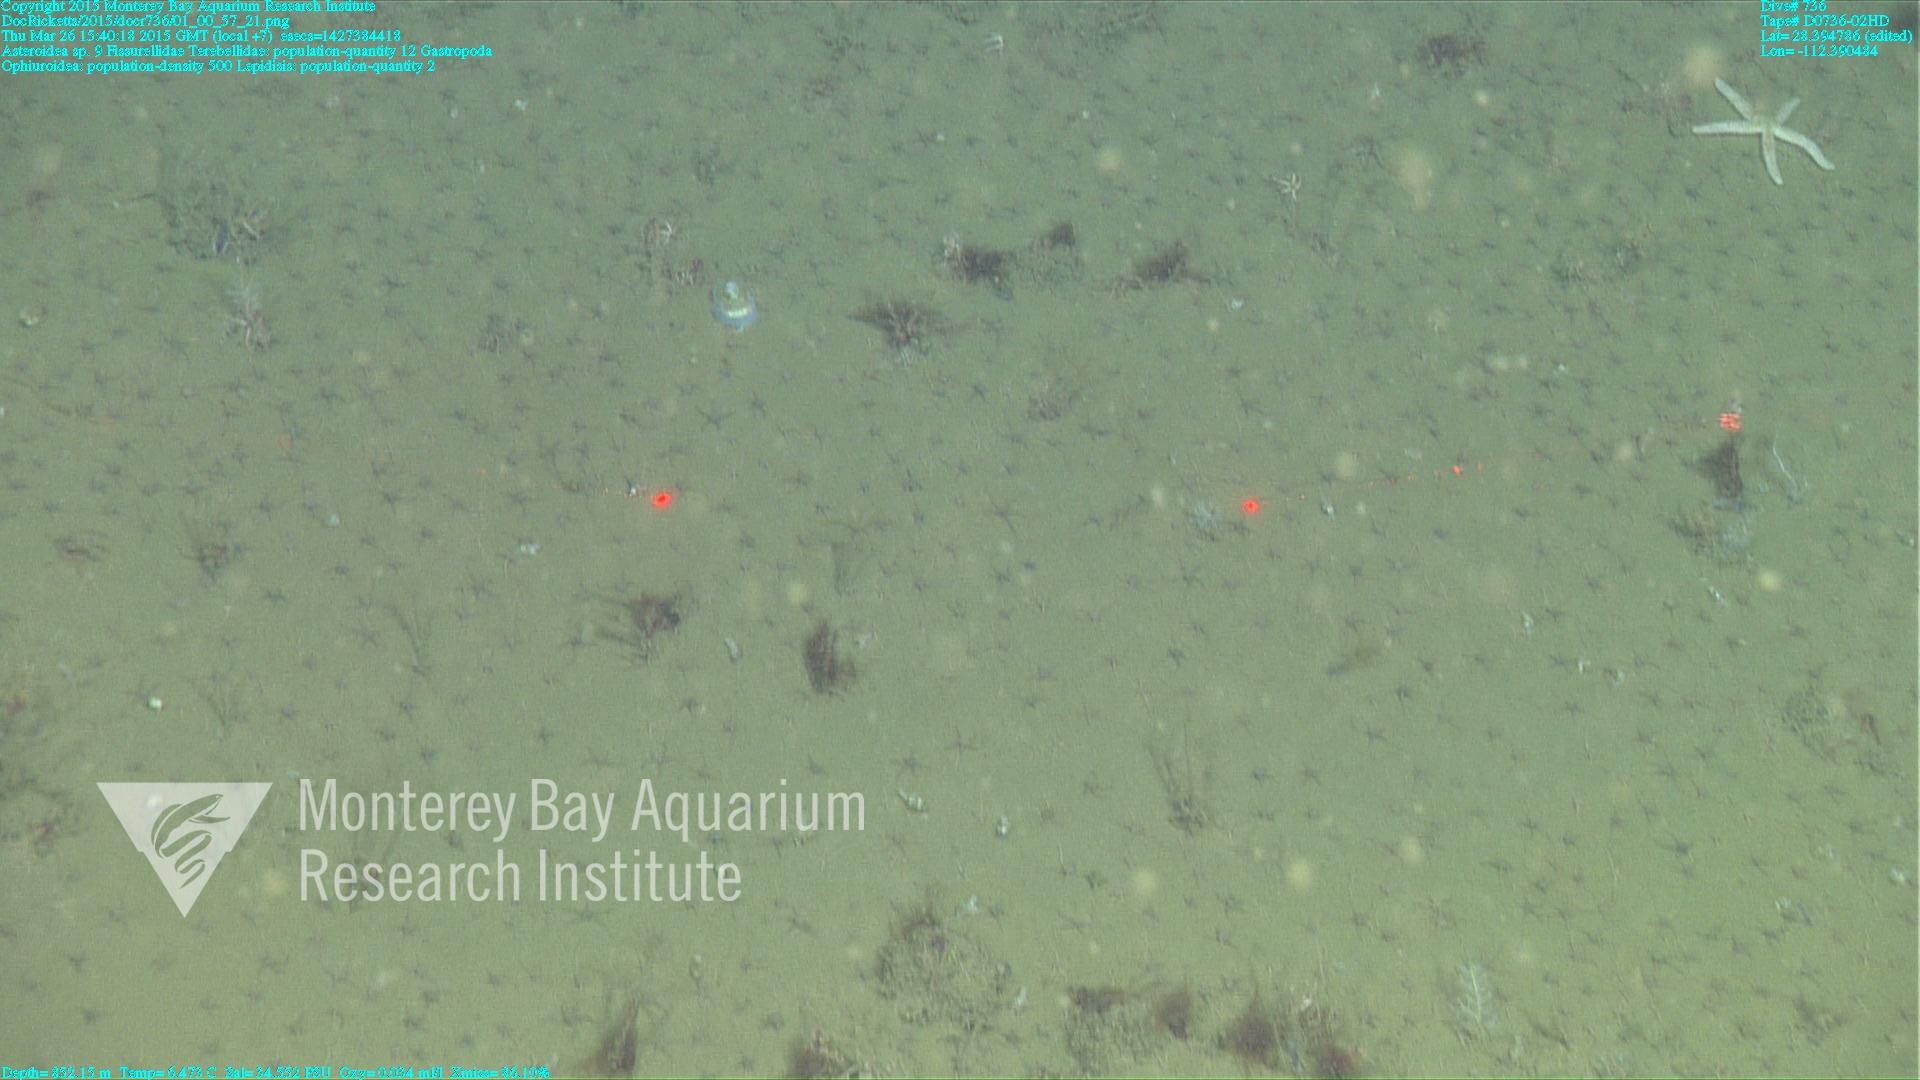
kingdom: Animalia
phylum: Cnidaria
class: Anthozoa
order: Scleralcyonacea
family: Keratoisididae
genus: Lepidisis
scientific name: Lepidisis
